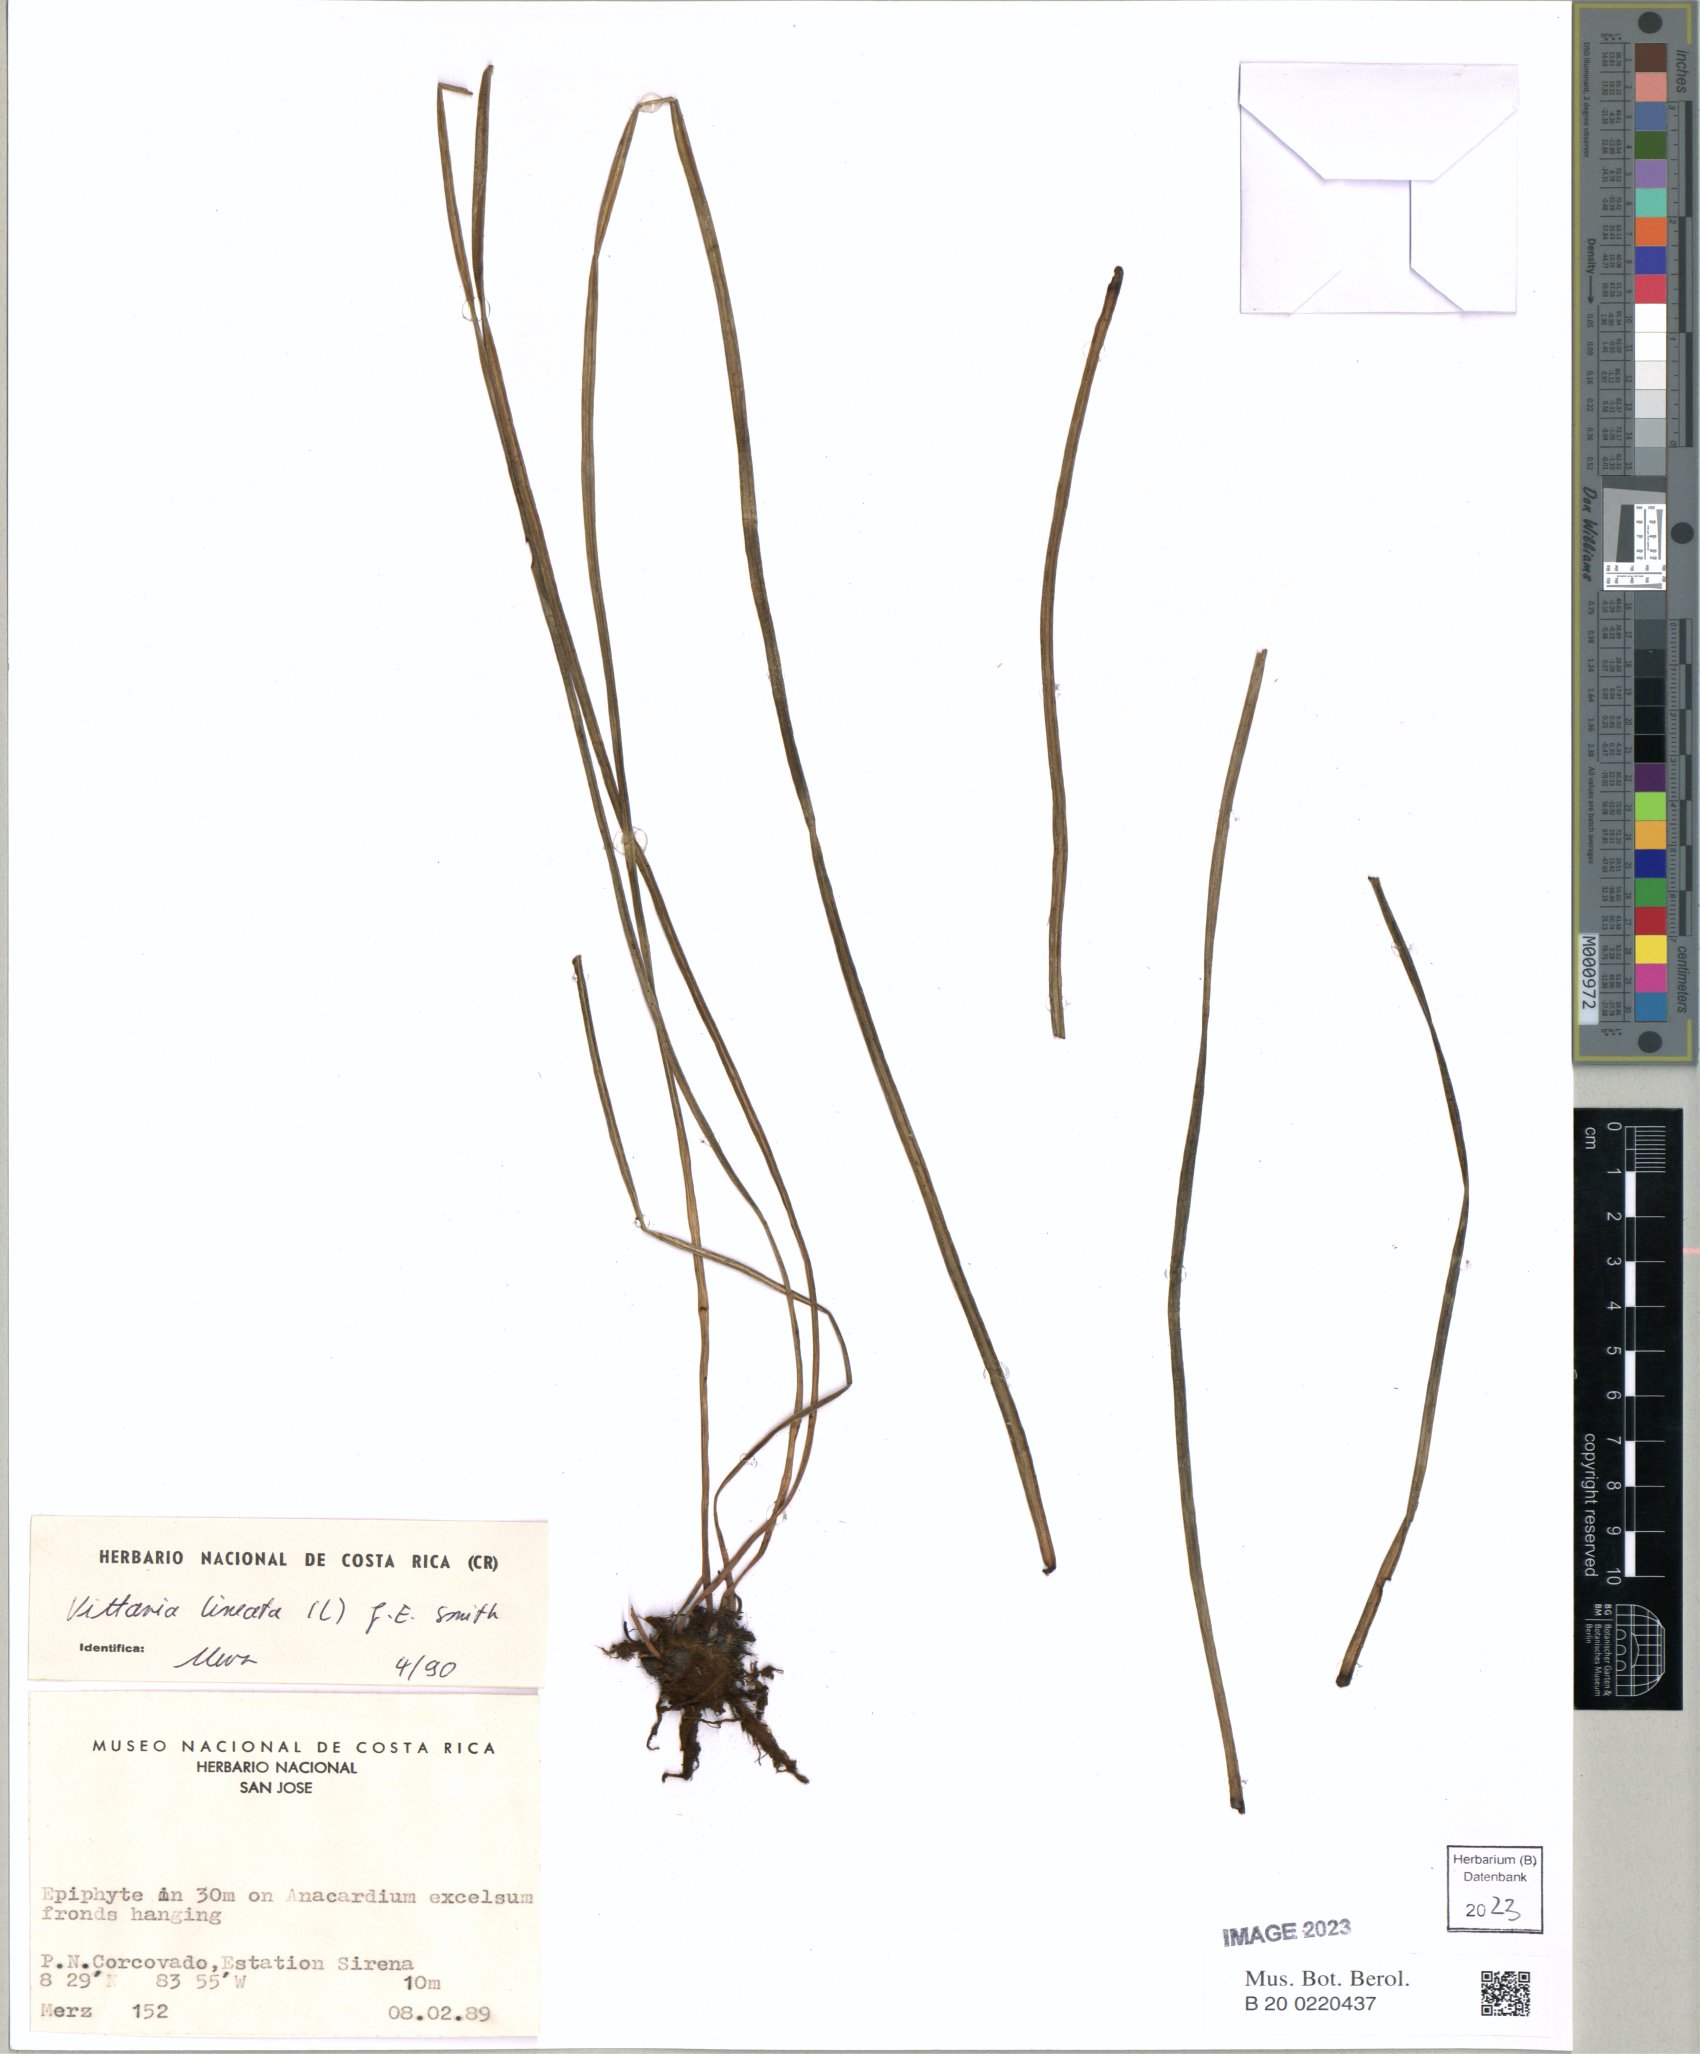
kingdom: Plantae
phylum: Tracheophyta
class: Polypodiopsida
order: Polypodiales
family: Pteridaceae
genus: Vittaria
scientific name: Vittaria lineata
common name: Shoestring fern
